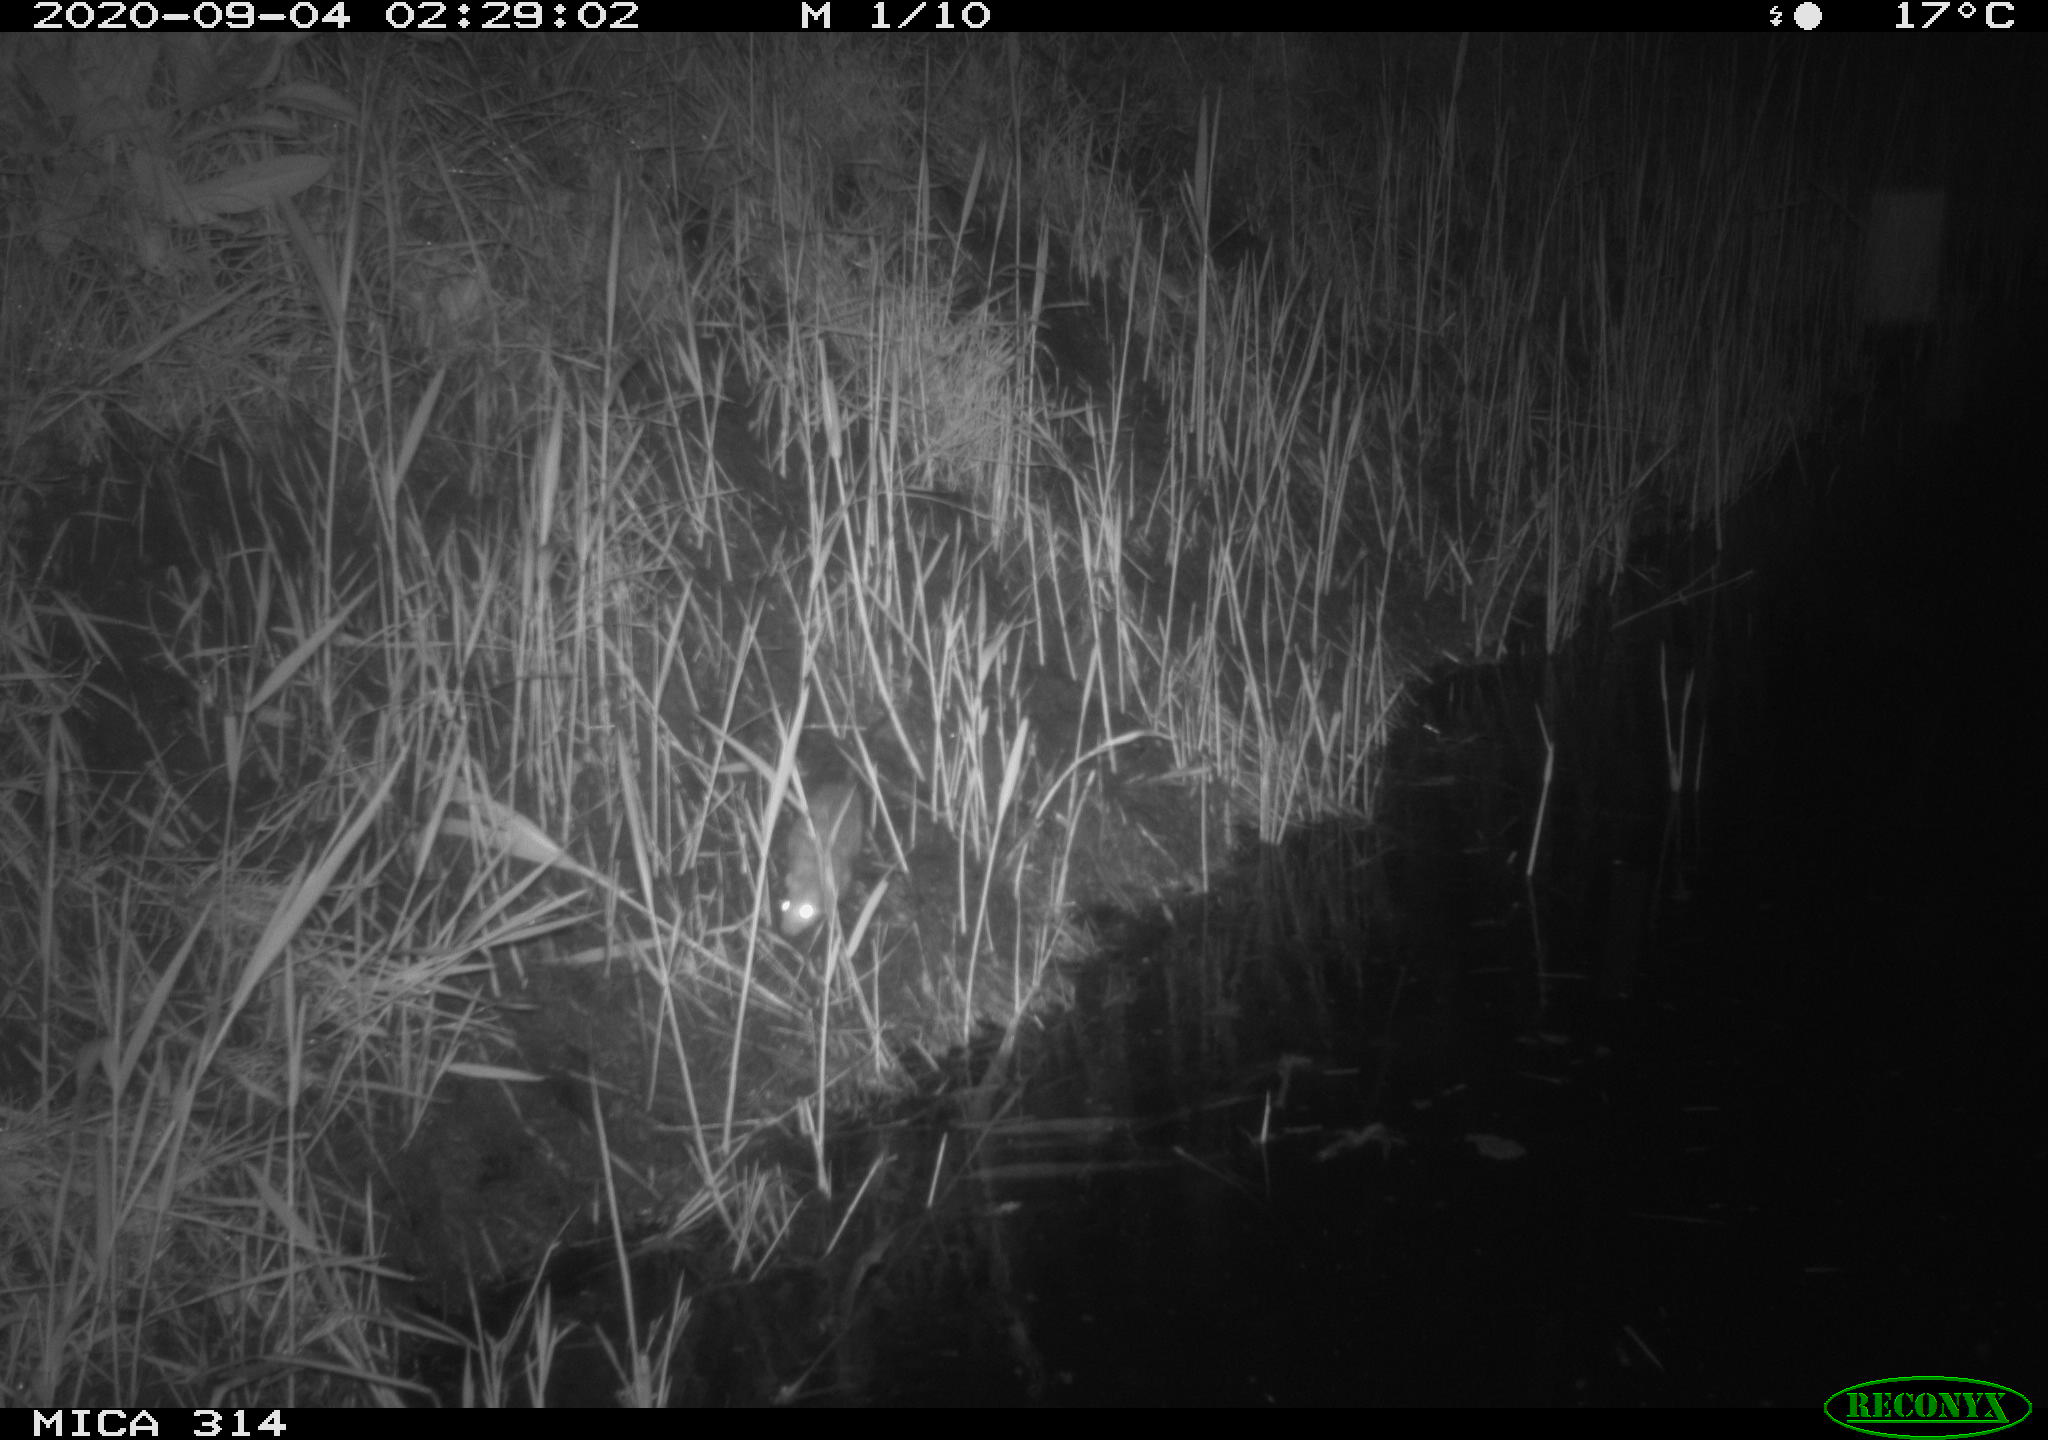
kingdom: Animalia
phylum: Chordata
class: Mammalia
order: Rodentia
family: Muridae
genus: Rattus
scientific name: Rattus norvegicus
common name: Brown rat
